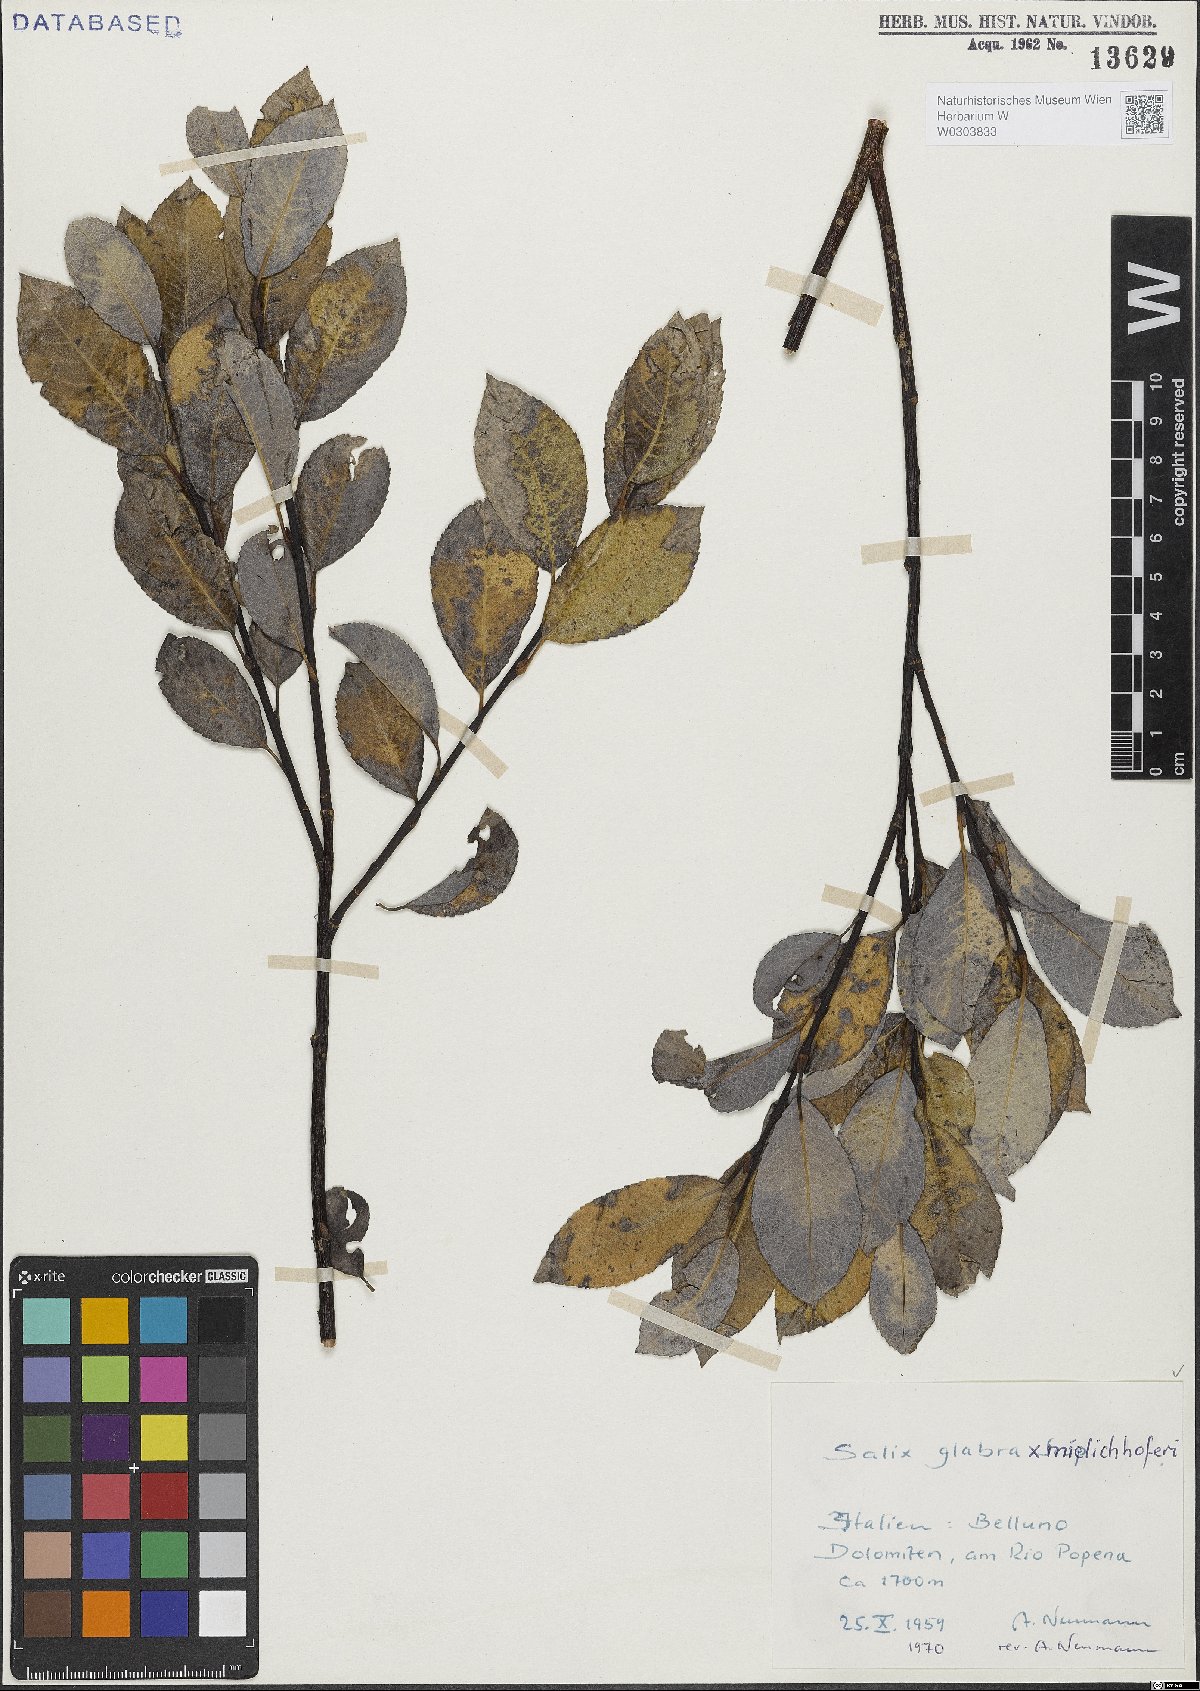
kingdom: Plantae
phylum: Tracheophyta
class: Magnoliopsida
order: Malpighiales
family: Salicaceae
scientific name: Salicaceae
